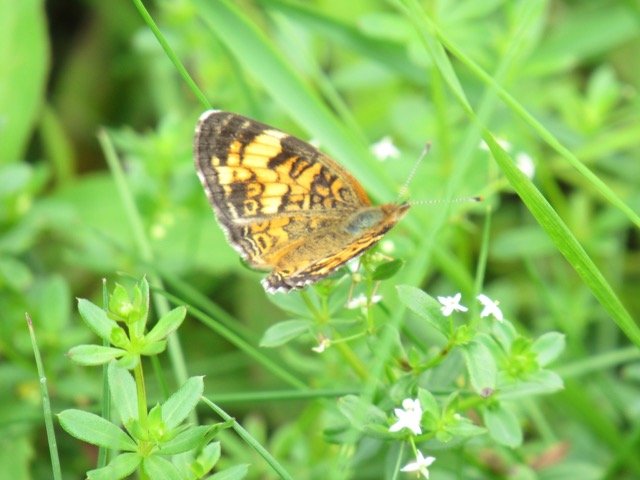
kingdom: Animalia
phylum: Arthropoda
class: Insecta
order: Lepidoptera
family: Nymphalidae
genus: Phyciodes
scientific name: Phyciodes tharos
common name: Pearl Crescent
